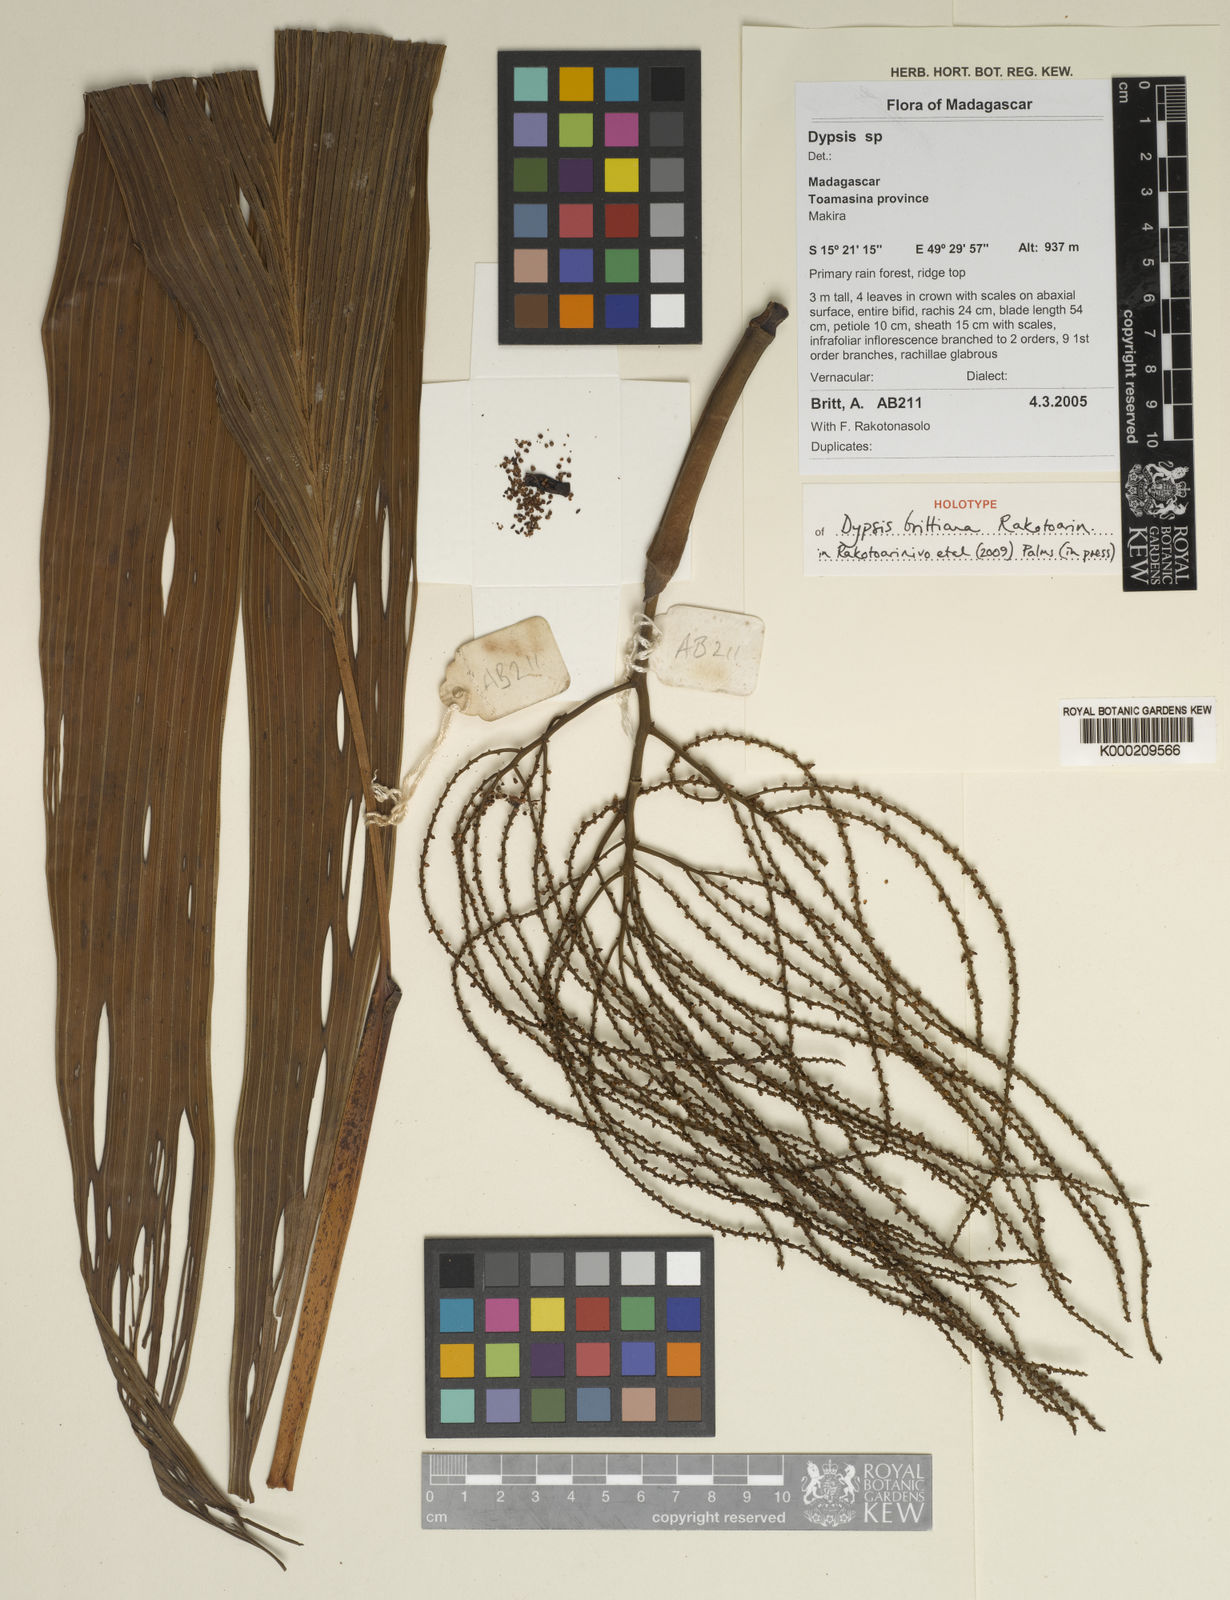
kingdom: Plantae
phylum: Tracheophyta
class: Liliopsida
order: Arecales
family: Arecaceae
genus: Dypsis
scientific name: Dypsis brittiana
